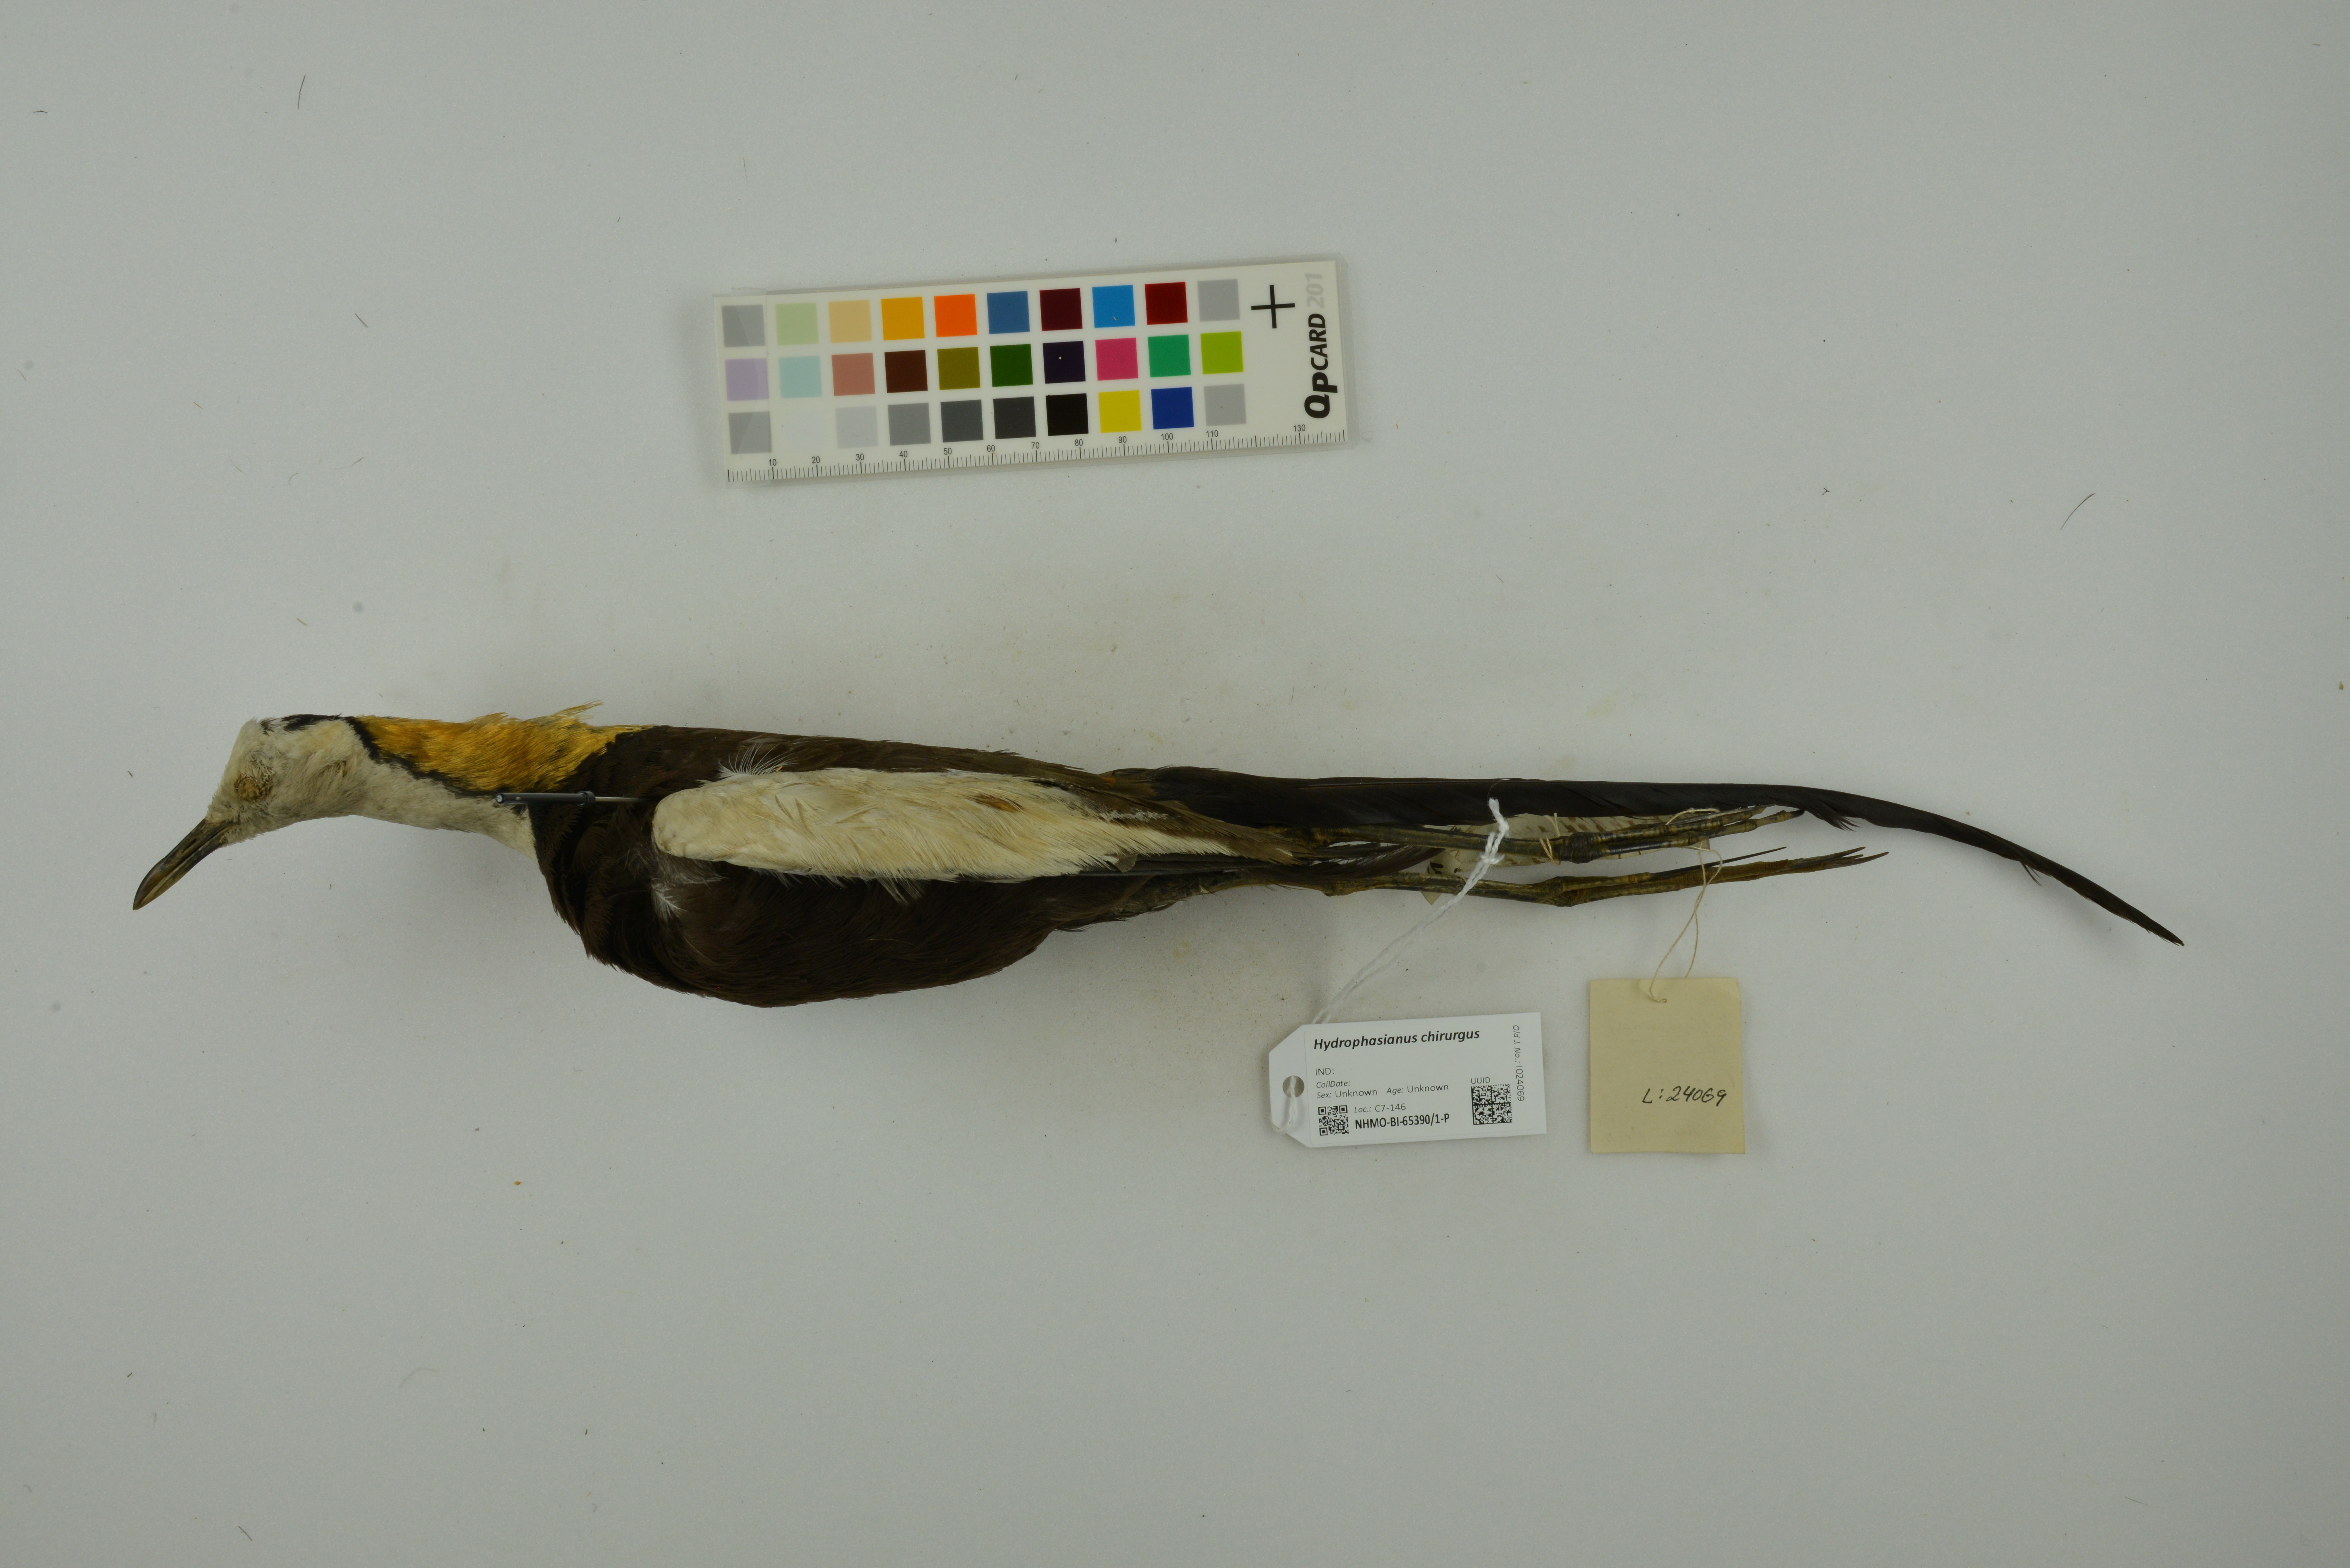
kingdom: Animalia
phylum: Chordata
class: Aves
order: Charadriiformes
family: Jacanidae
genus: Hydrophasianus
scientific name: Hydrophasianus chirurgus
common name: Pheasant-tailed jacana
